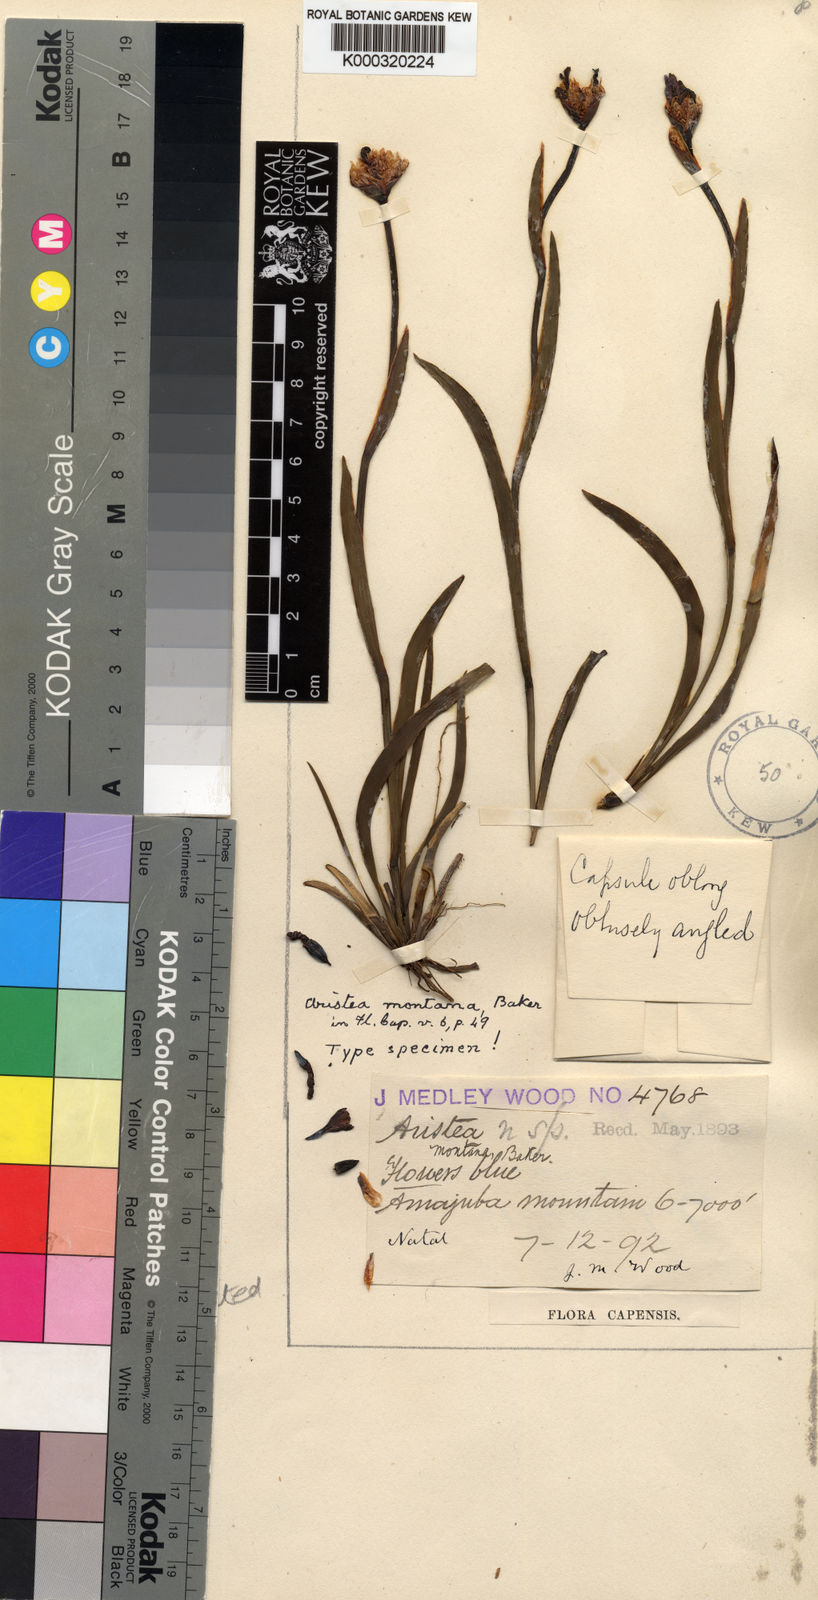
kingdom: Plantae
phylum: Tracheophyta
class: Liliopsida
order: Asparagales
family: Iridaceae
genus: Aristea
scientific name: Aristea montana
